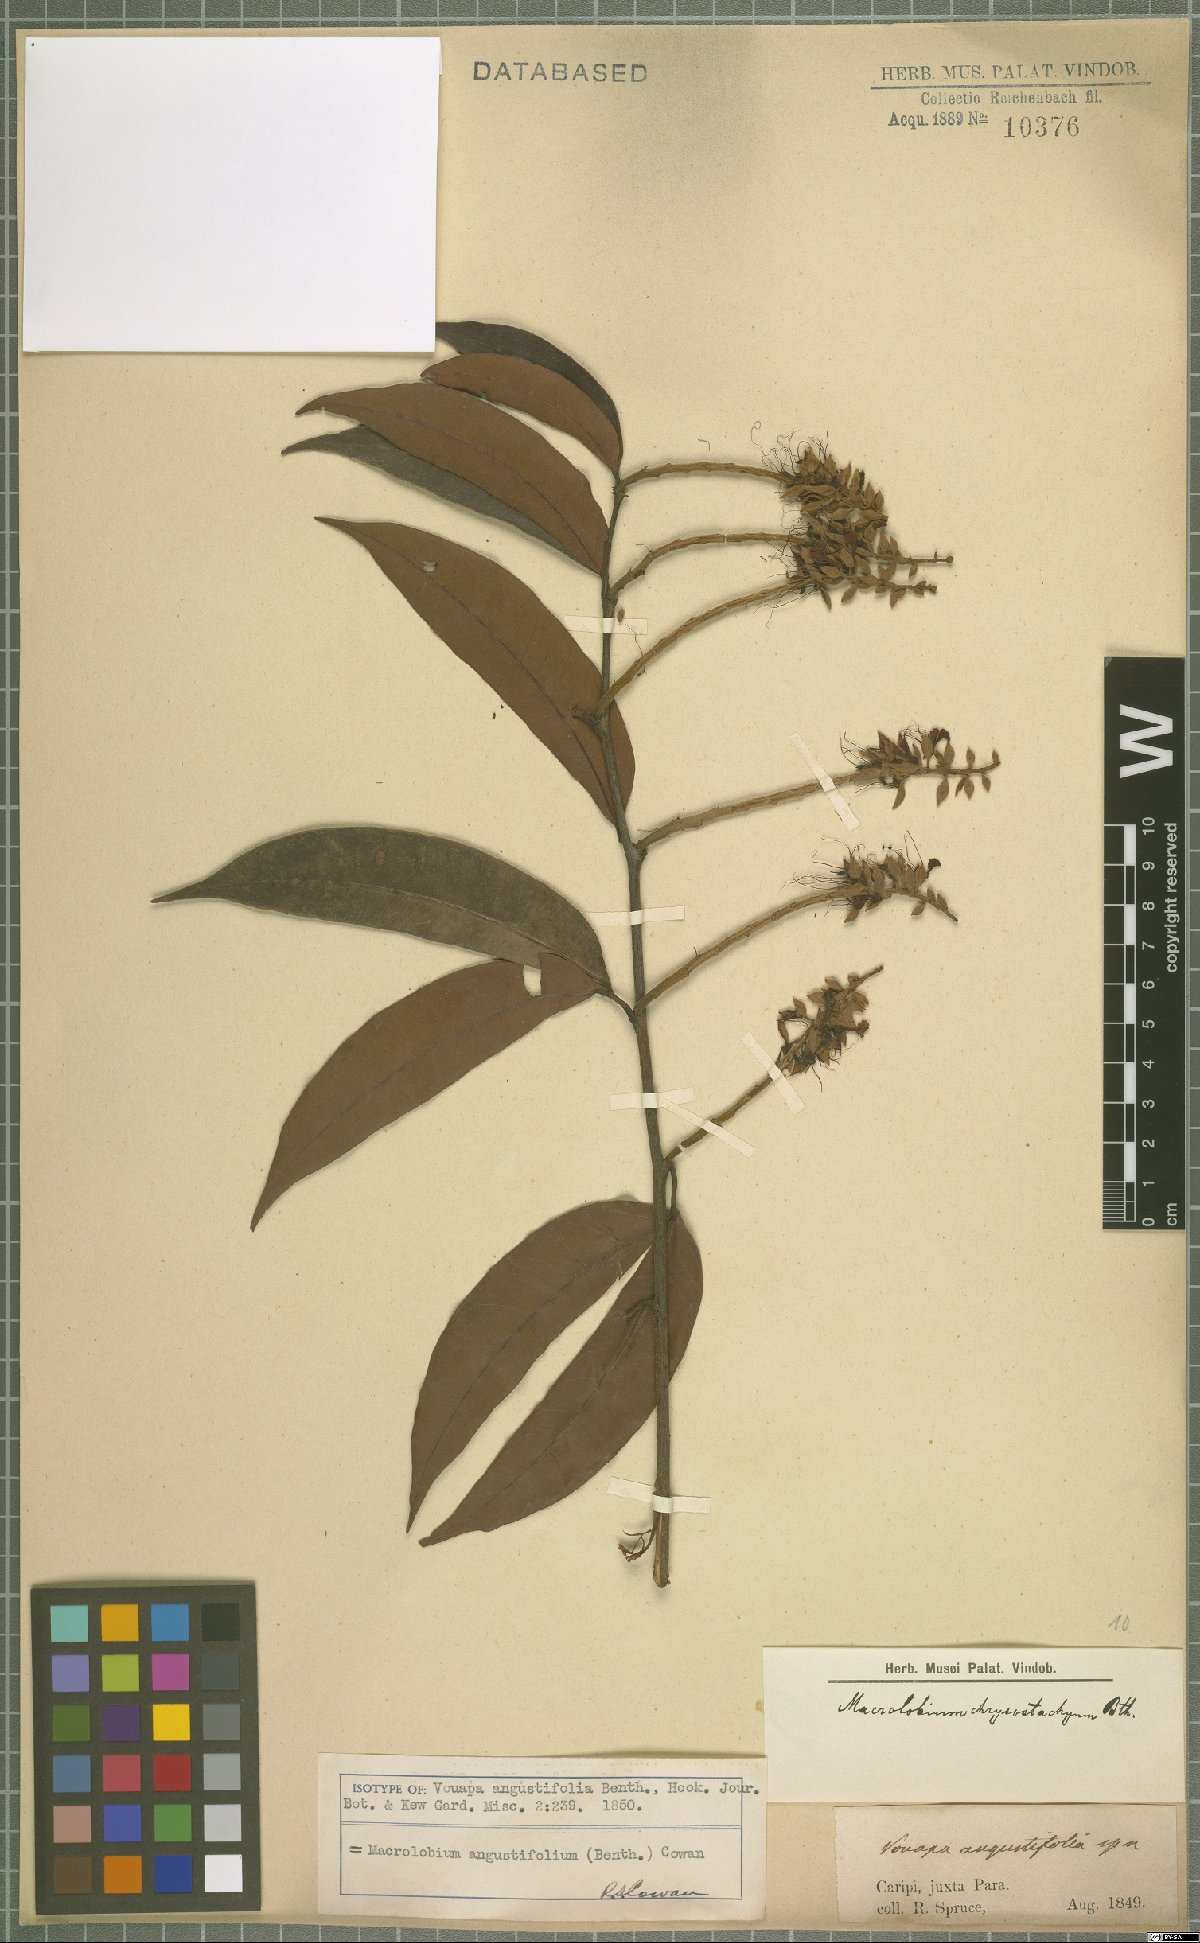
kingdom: Plantae
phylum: Tracheophyta
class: Magnoliopsida
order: Fabales
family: Fabaceae
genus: Macrolobium
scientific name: Macrolobium angustifolium
